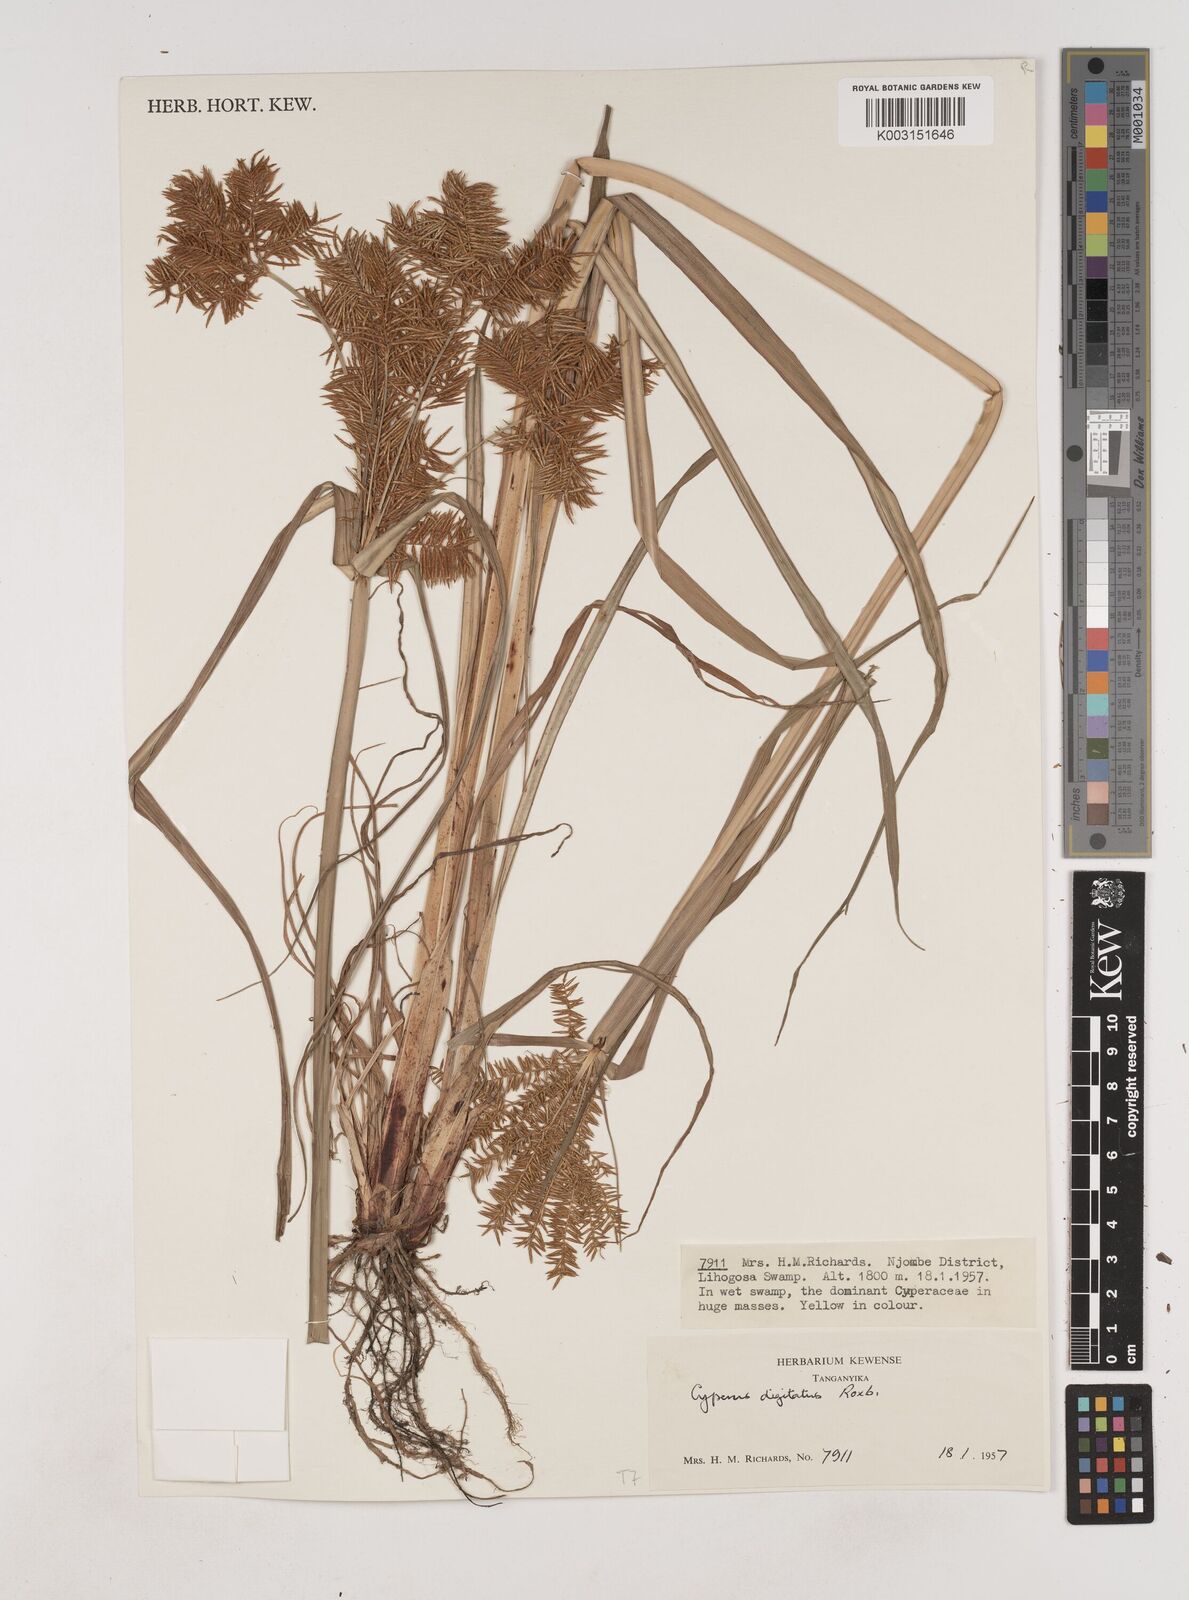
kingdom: Plantae
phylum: Tracheophyta
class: Liliopsida
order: Poales
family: Cyperaceae
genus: Cyperus
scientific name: Cyperus digitatus
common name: Finger flatsedge
